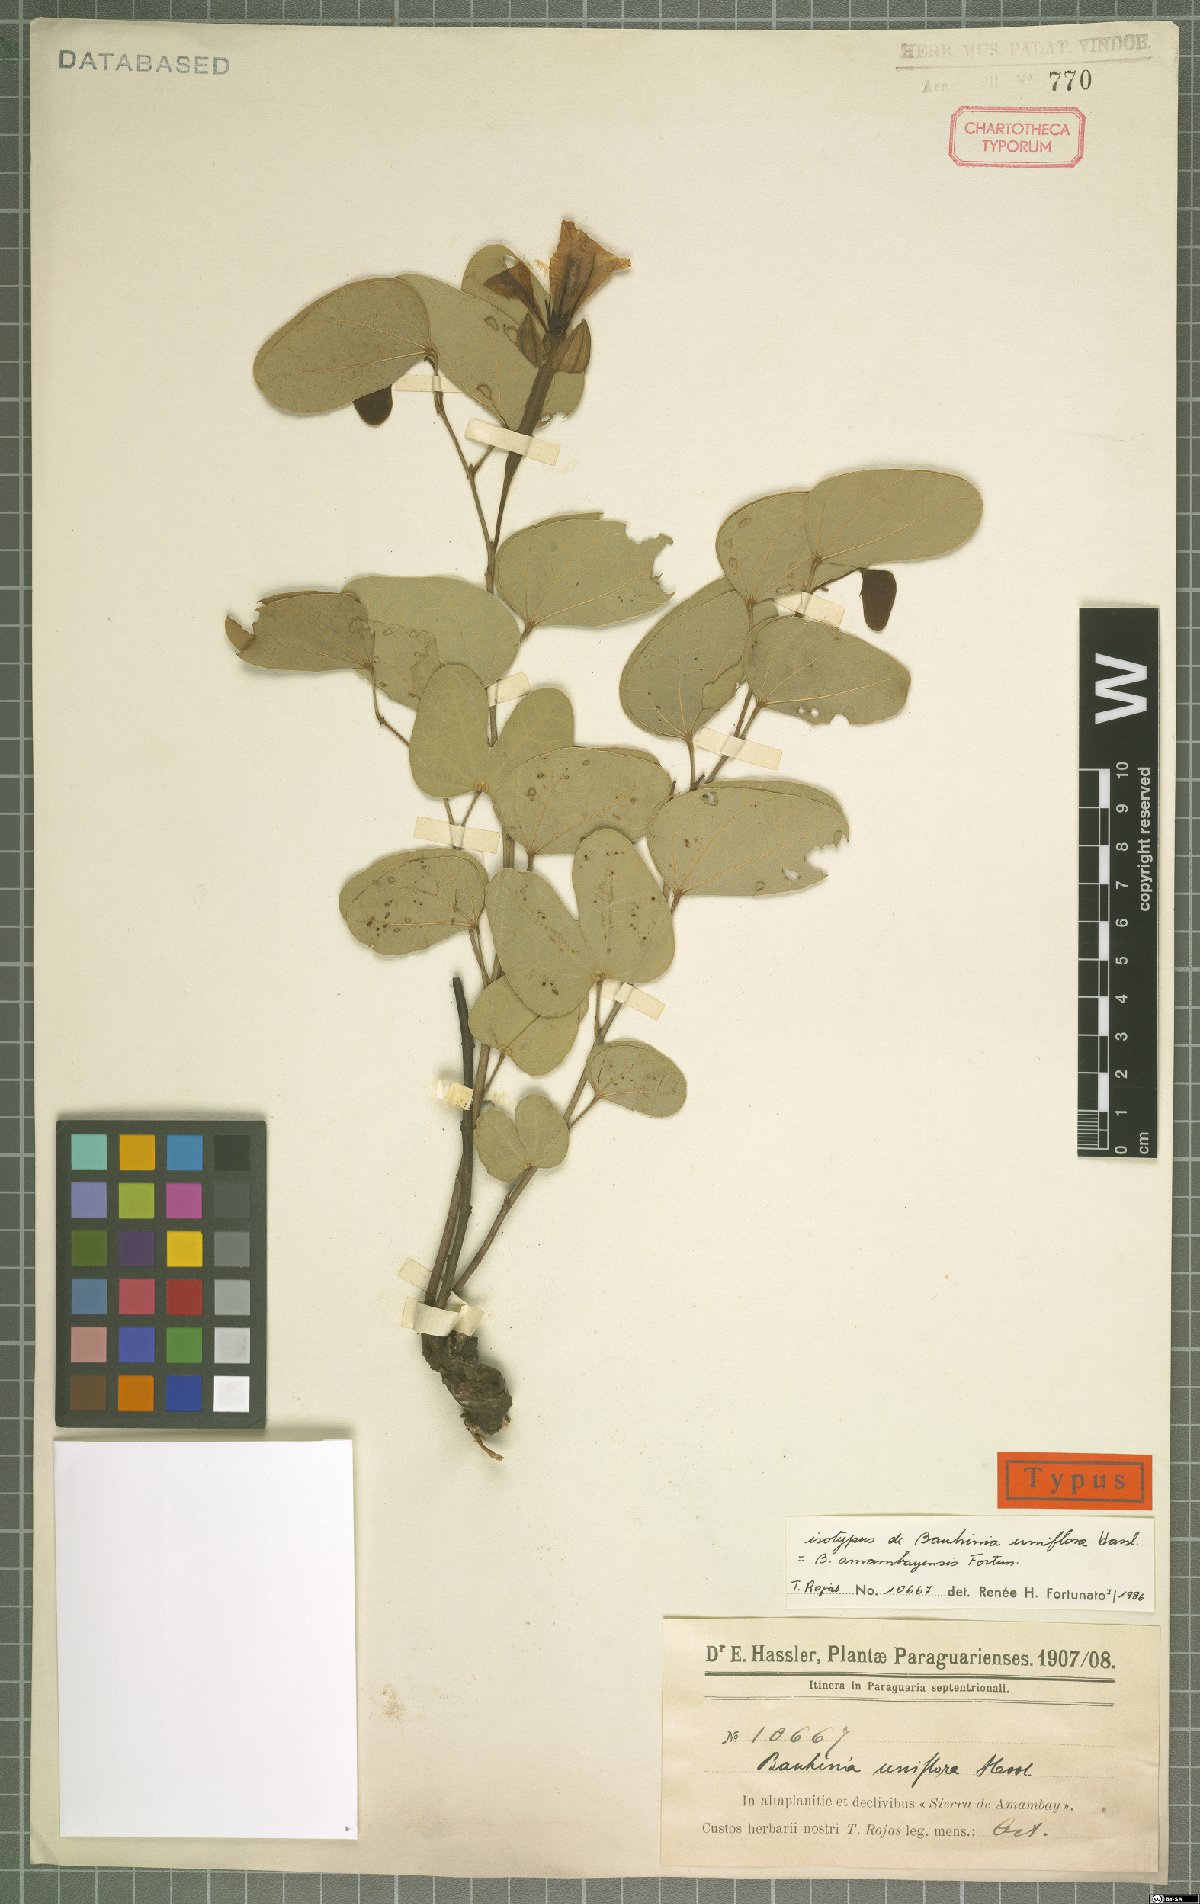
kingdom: Plantae
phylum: Tracheophyta
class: Magnoliopsida
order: Fabales
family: Fabaceae
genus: Bauhinia
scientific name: Bauhinia amambayensis
